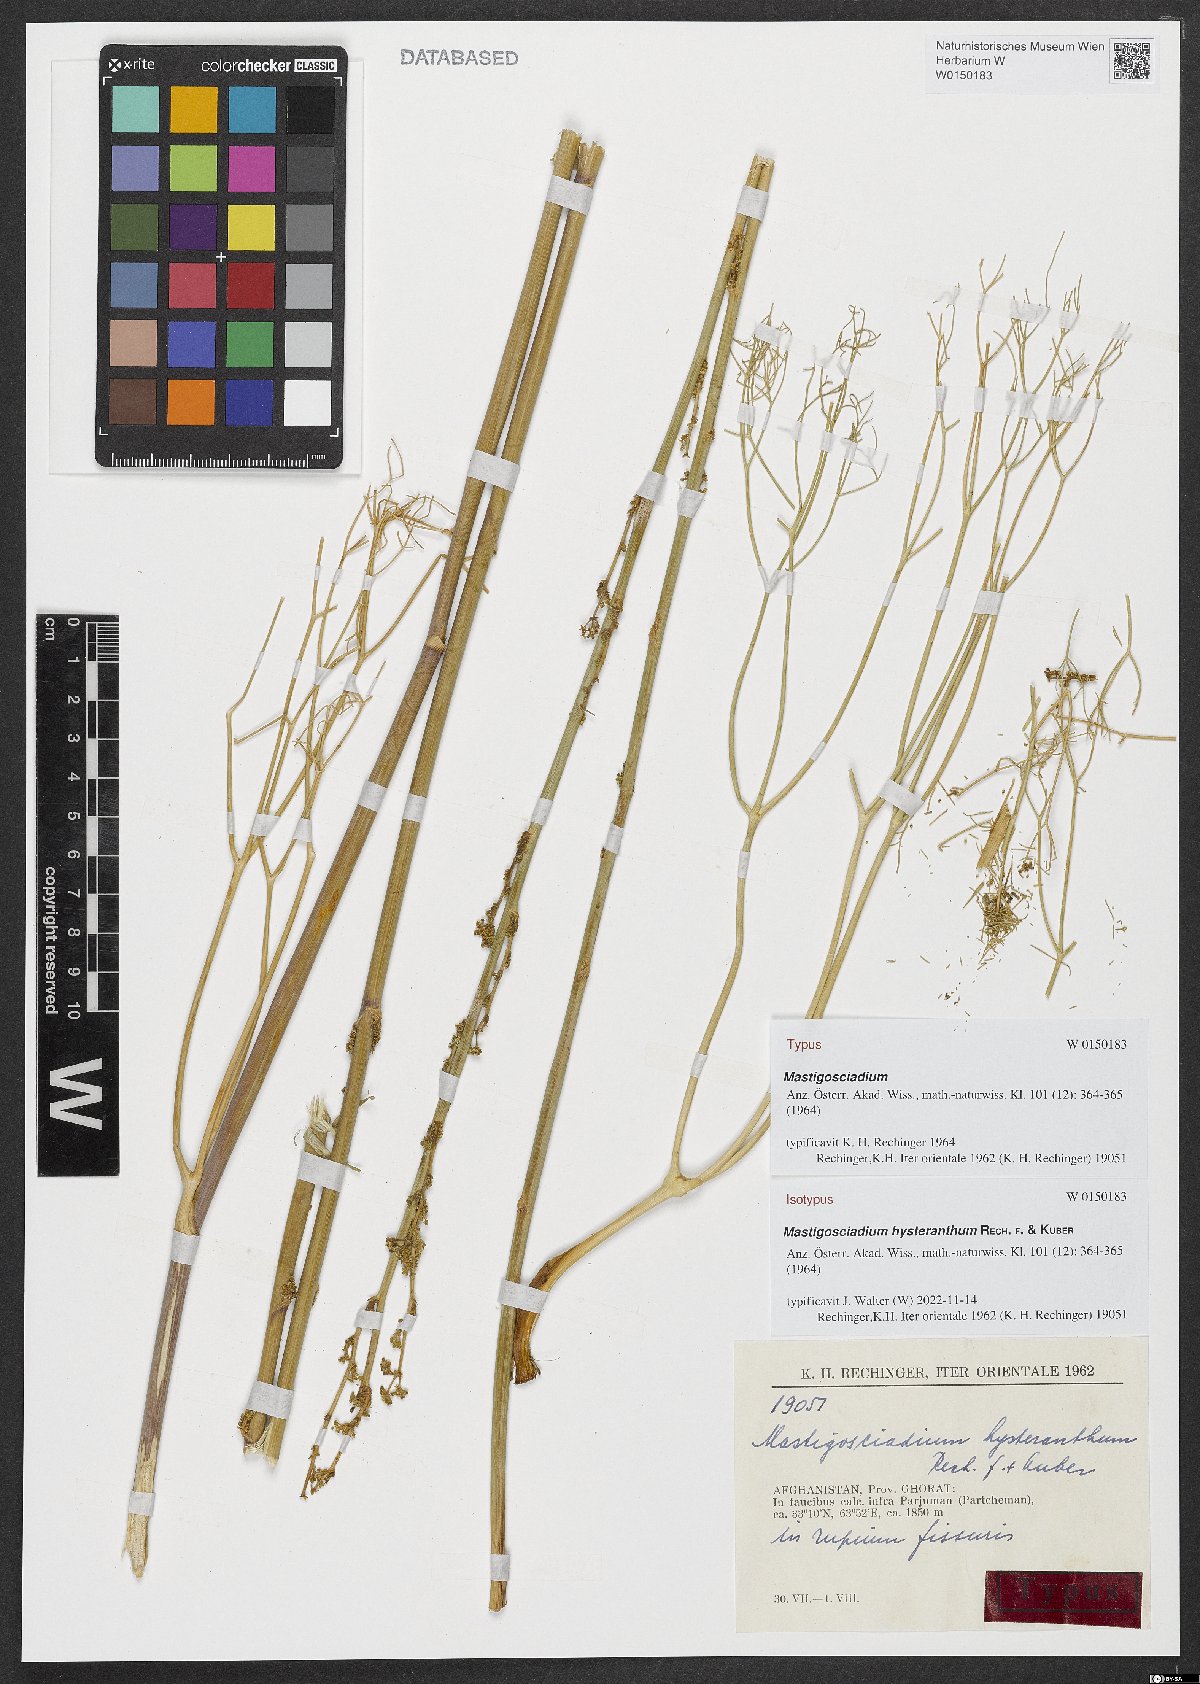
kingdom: Plantae
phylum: Tracheophyta
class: Magnoliopsida
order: Apiales
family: Apiaceae
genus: Mastigosciadium
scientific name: Mastigosciadium hysteranthum
